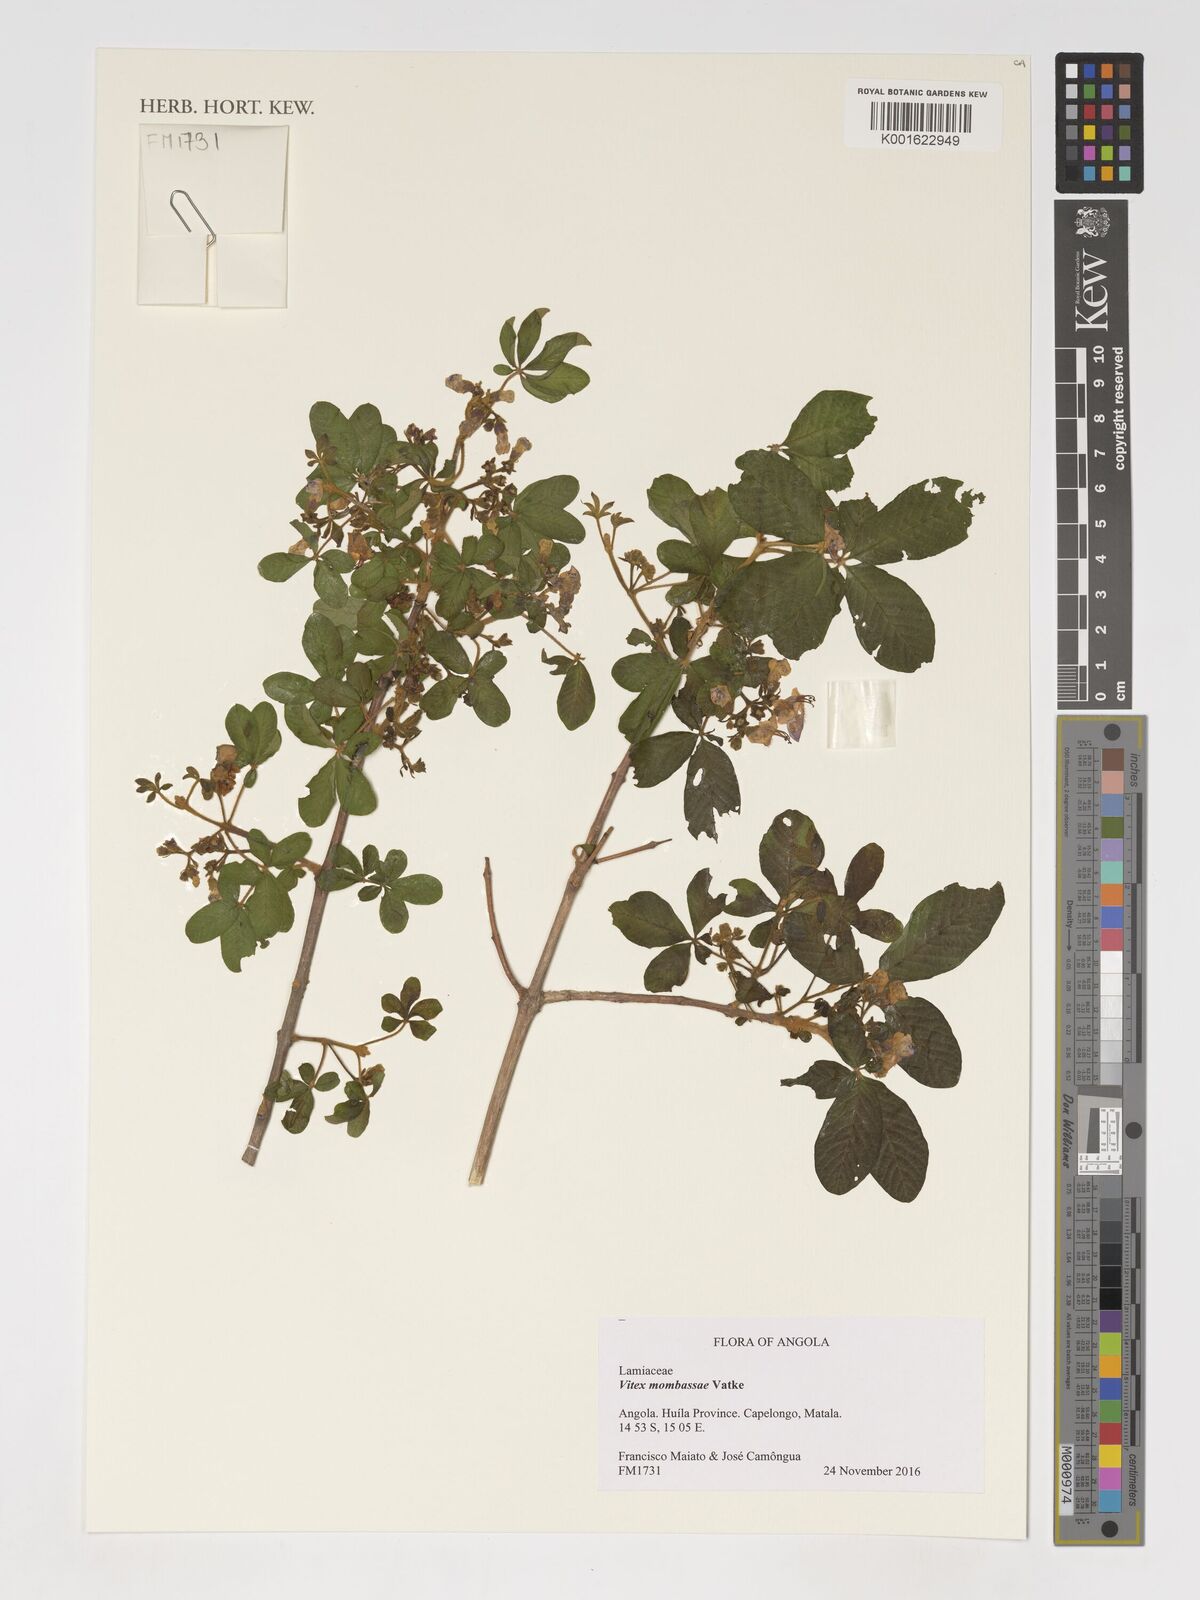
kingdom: Plantae
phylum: Tracheophyta
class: Magnoliopsida
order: Lamiales
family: Lamiaceae
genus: Vitex
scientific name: Vitex mombassae
